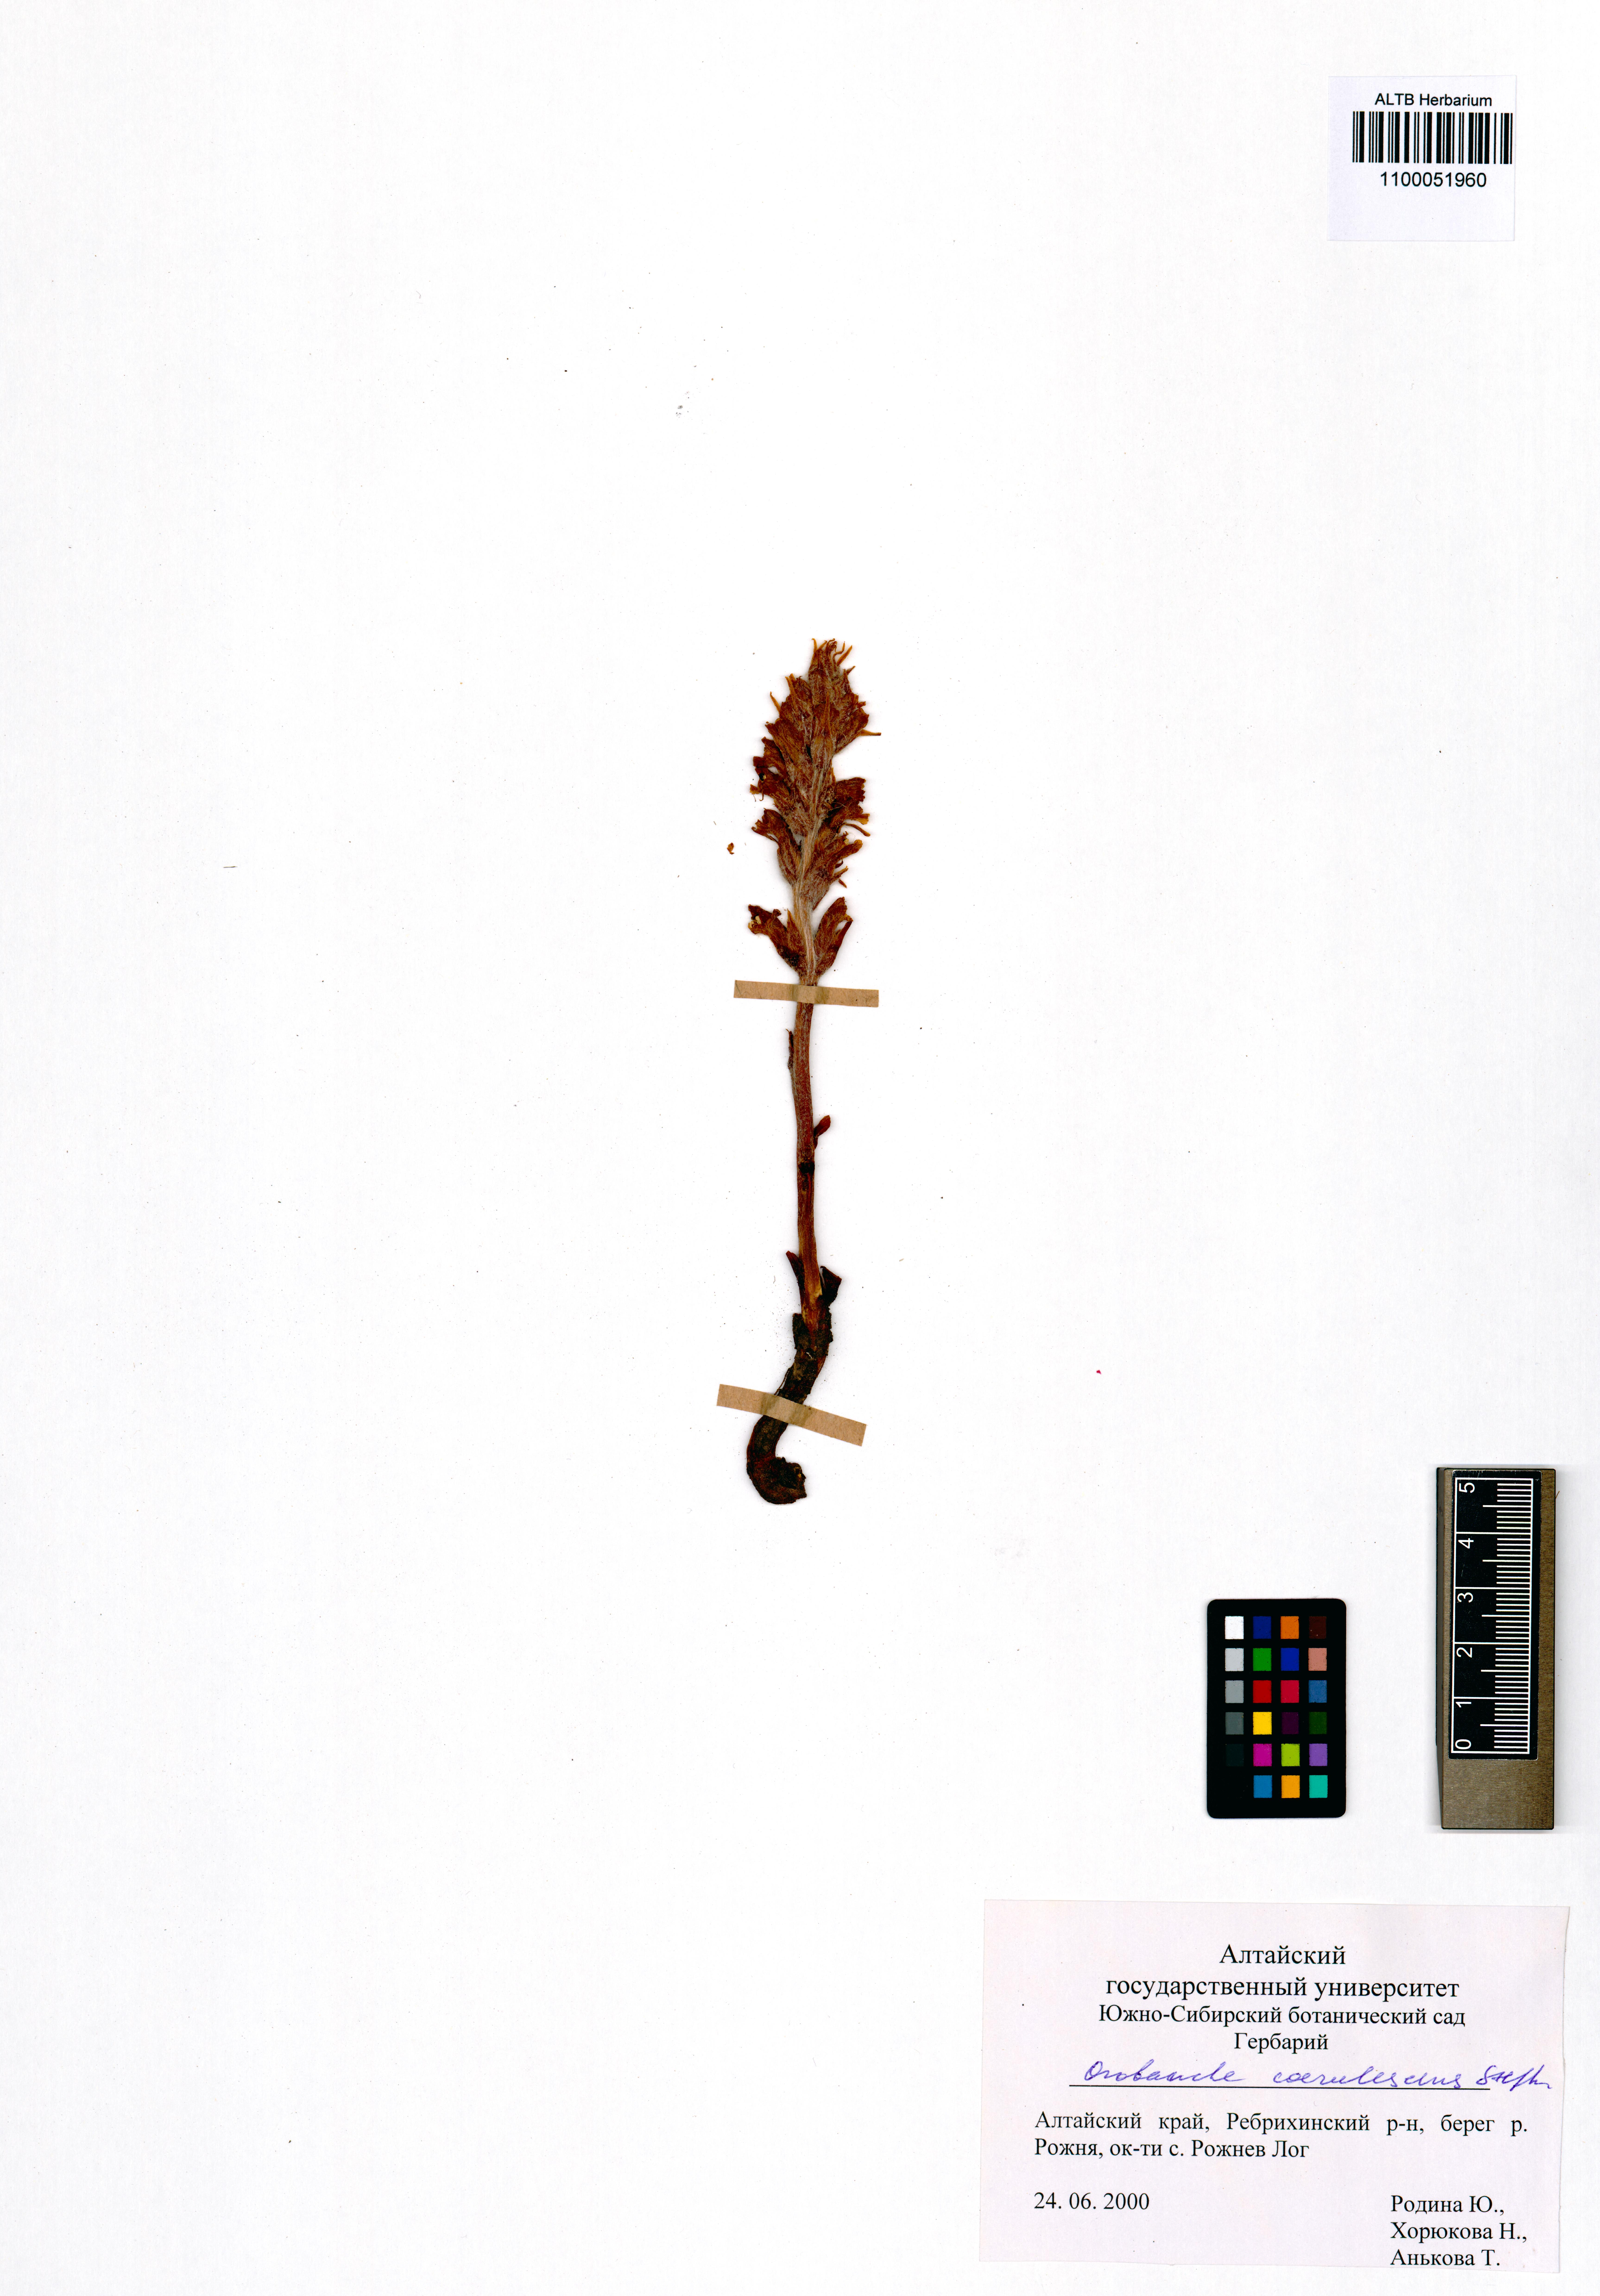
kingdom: Plantae
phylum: Tracheophyta
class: Magnoliopsida
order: Lamiales
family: Orobanchaceae
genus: Orobanche
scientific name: Orobanche coerulescens
